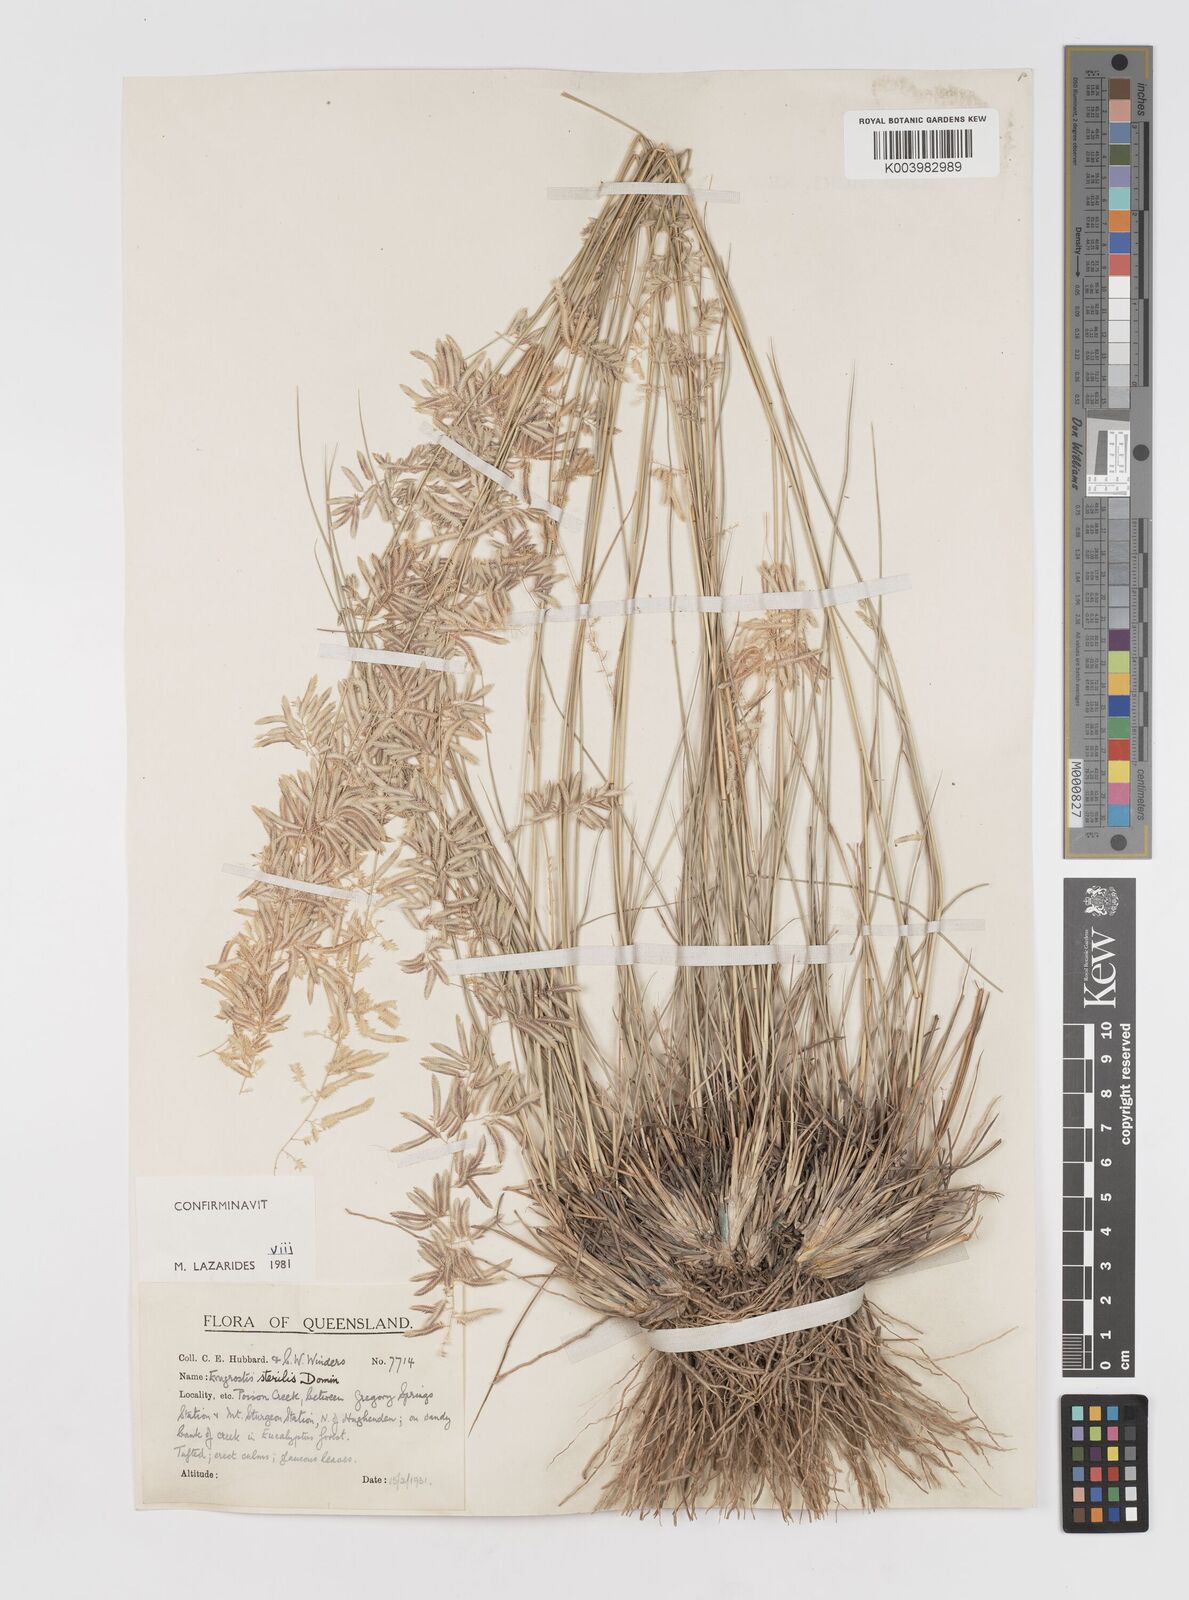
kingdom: Plantae
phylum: Tracheophyta
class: Liliopsida
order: Poales
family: Poaceae
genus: Eragrostis
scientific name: Eragrostis sterilis
